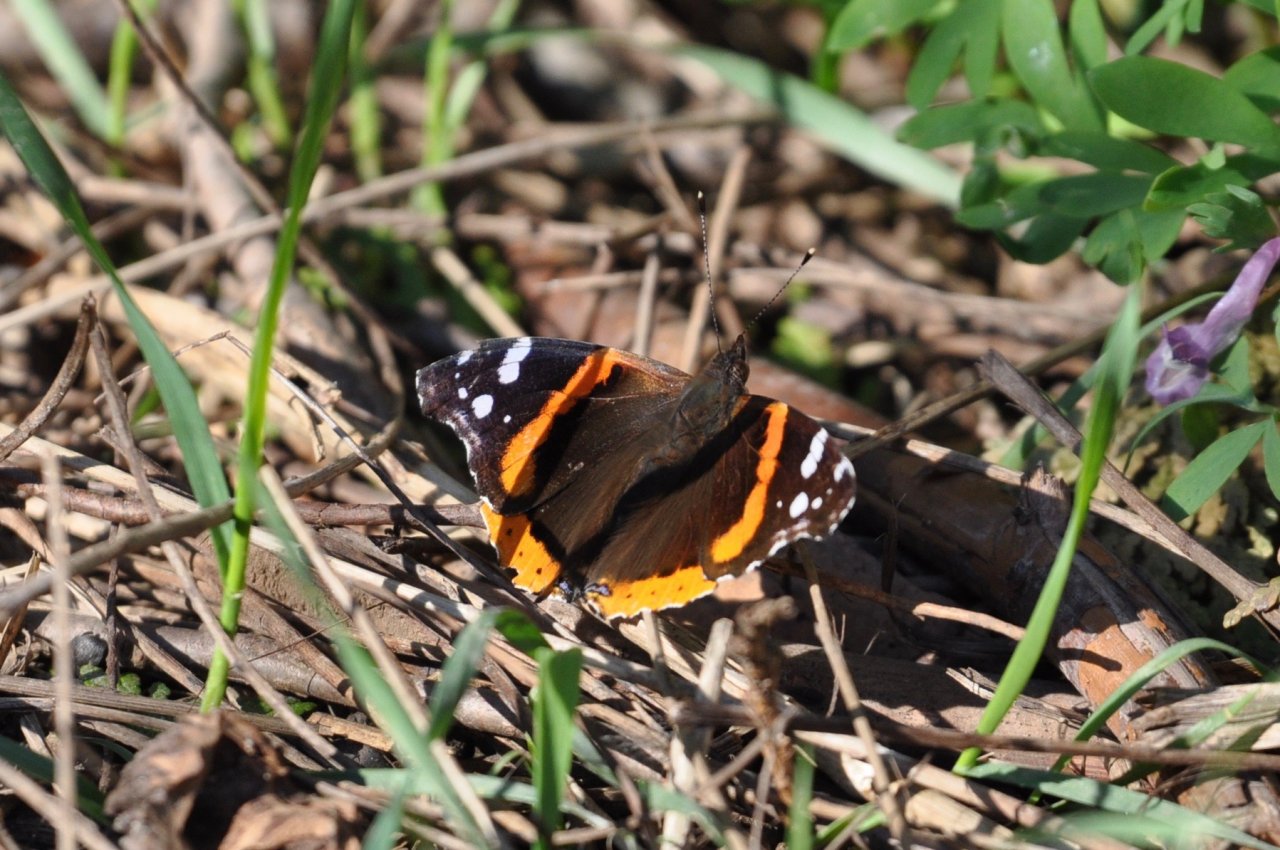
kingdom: Animalia
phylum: Arthropoda
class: Insecta
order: Lepidoptera
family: Nymphalidae
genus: Vanessa
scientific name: Vanessa atalanta
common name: Red Admiral
